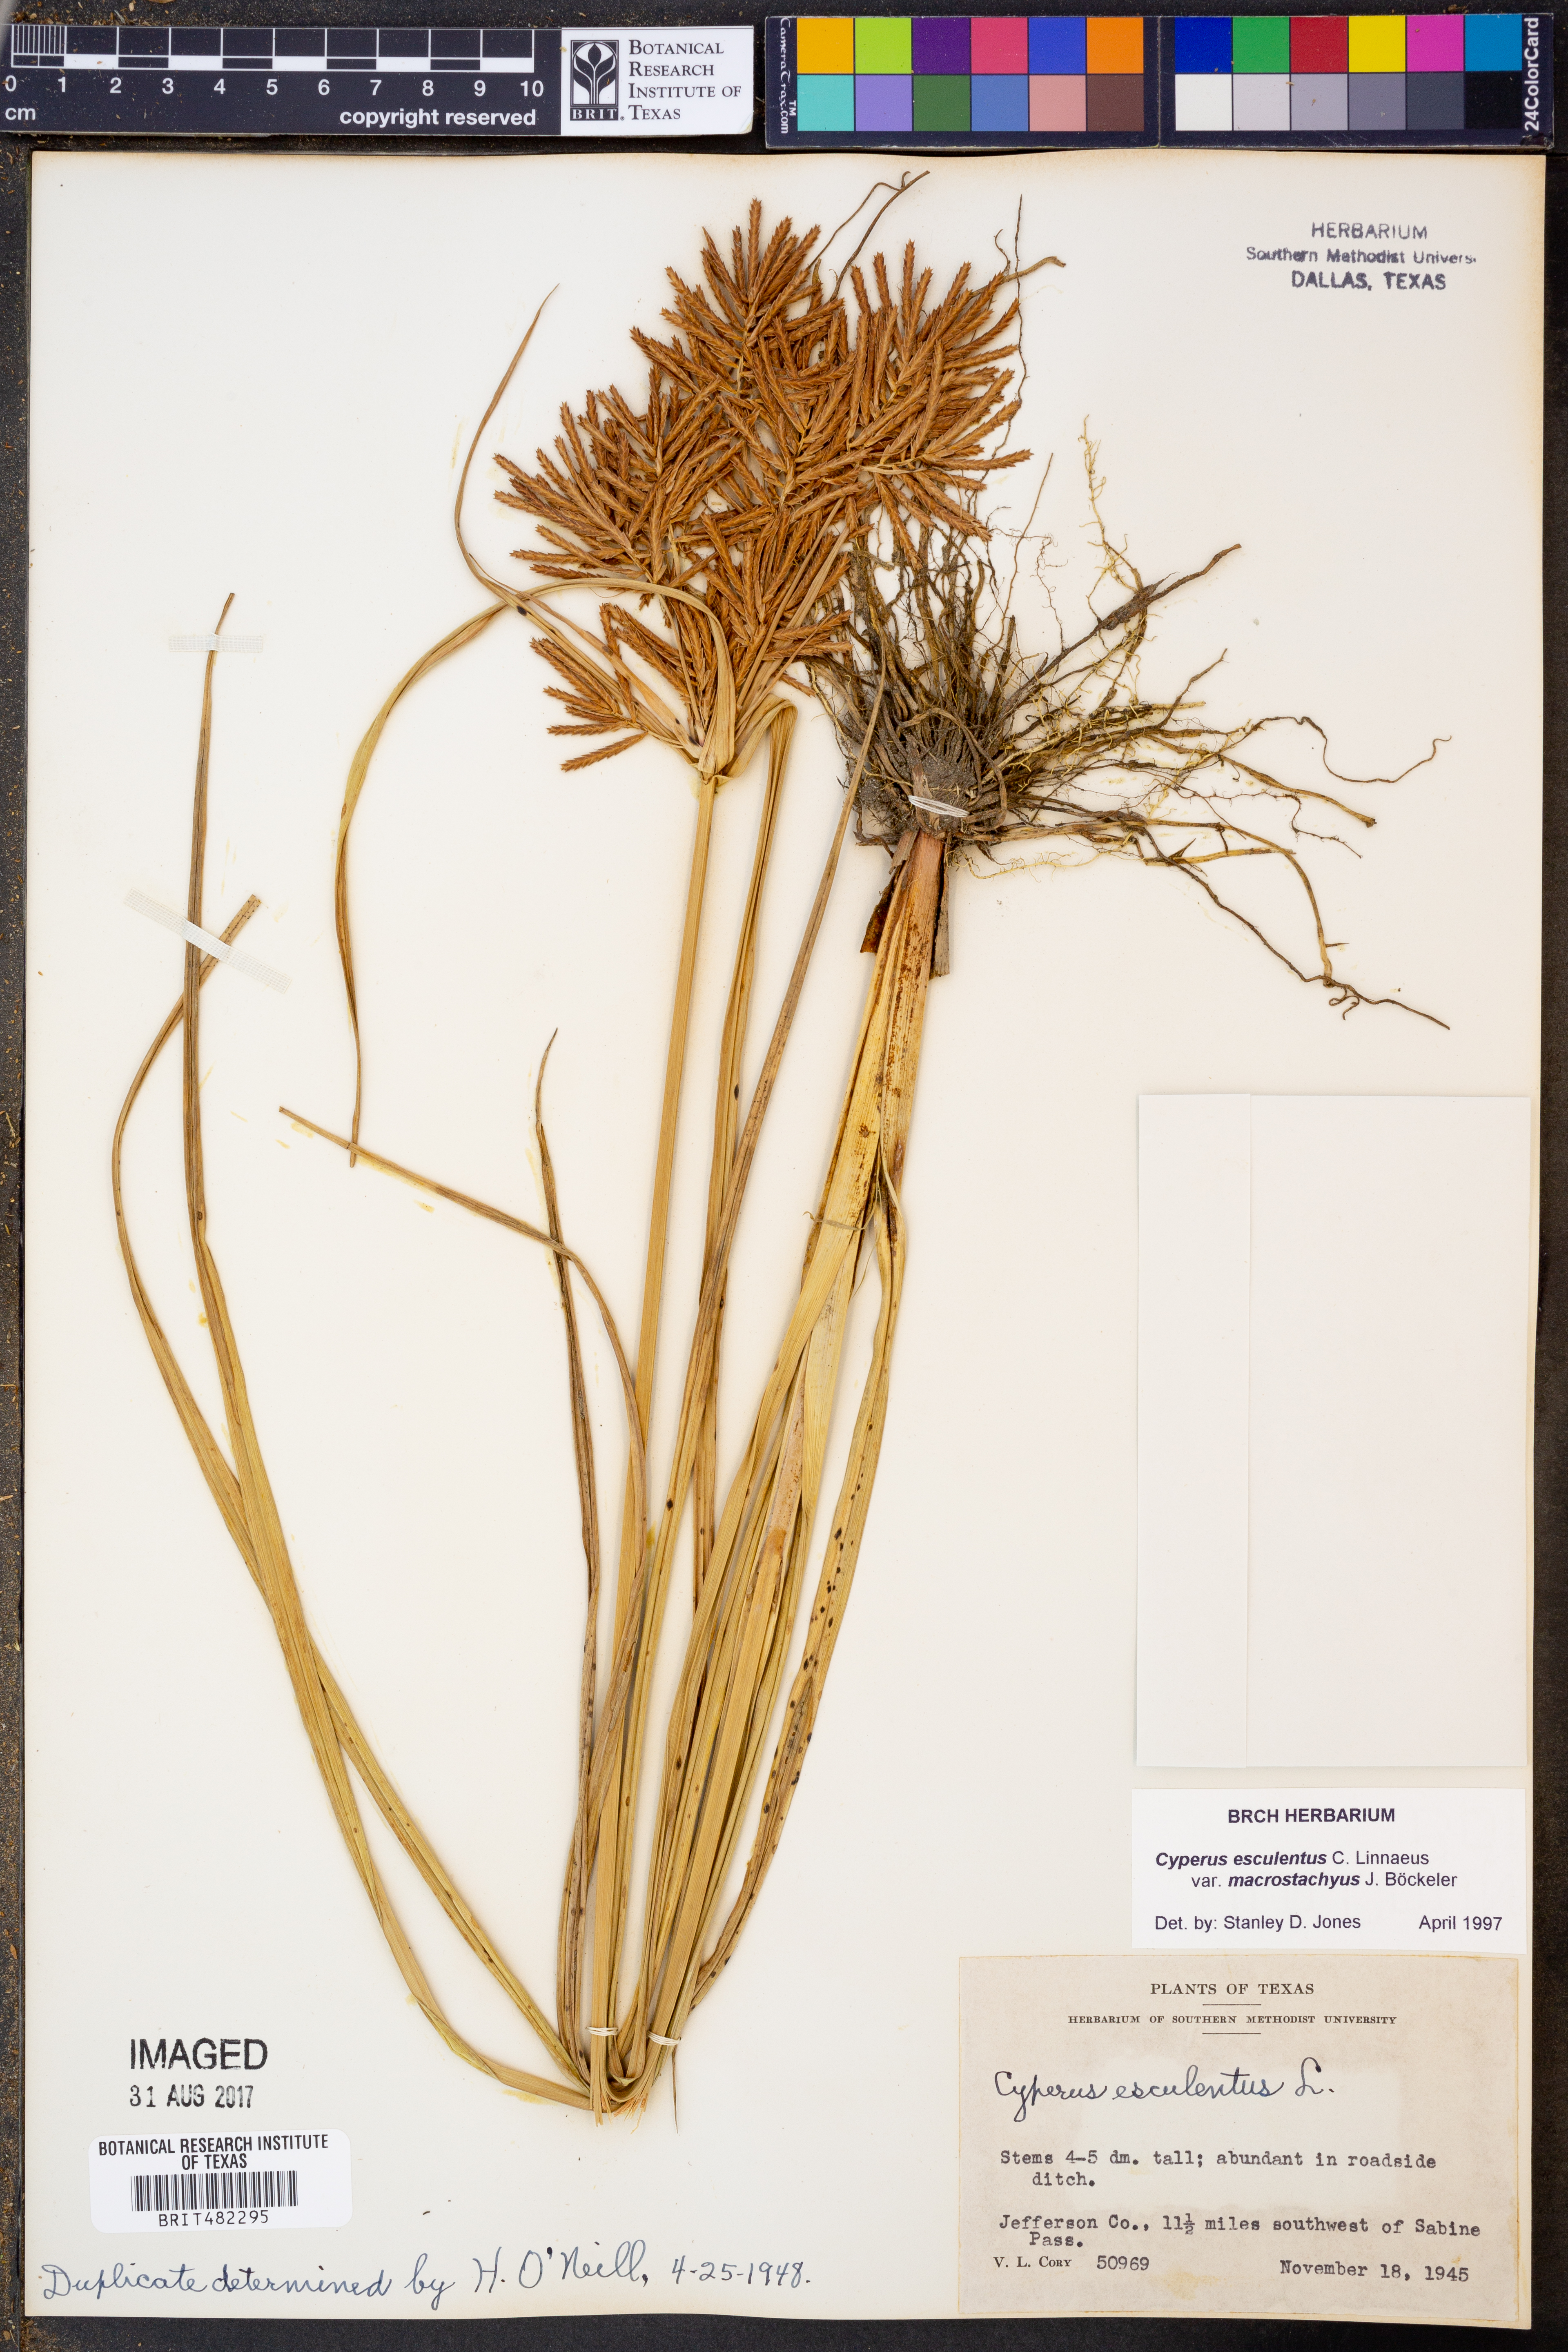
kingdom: Plantae
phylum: Tracheophyta
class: Liliopsida
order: Poales
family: Cyperaceae
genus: Cyperus
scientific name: Cyperus esculentus
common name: Yellow nutsedge
